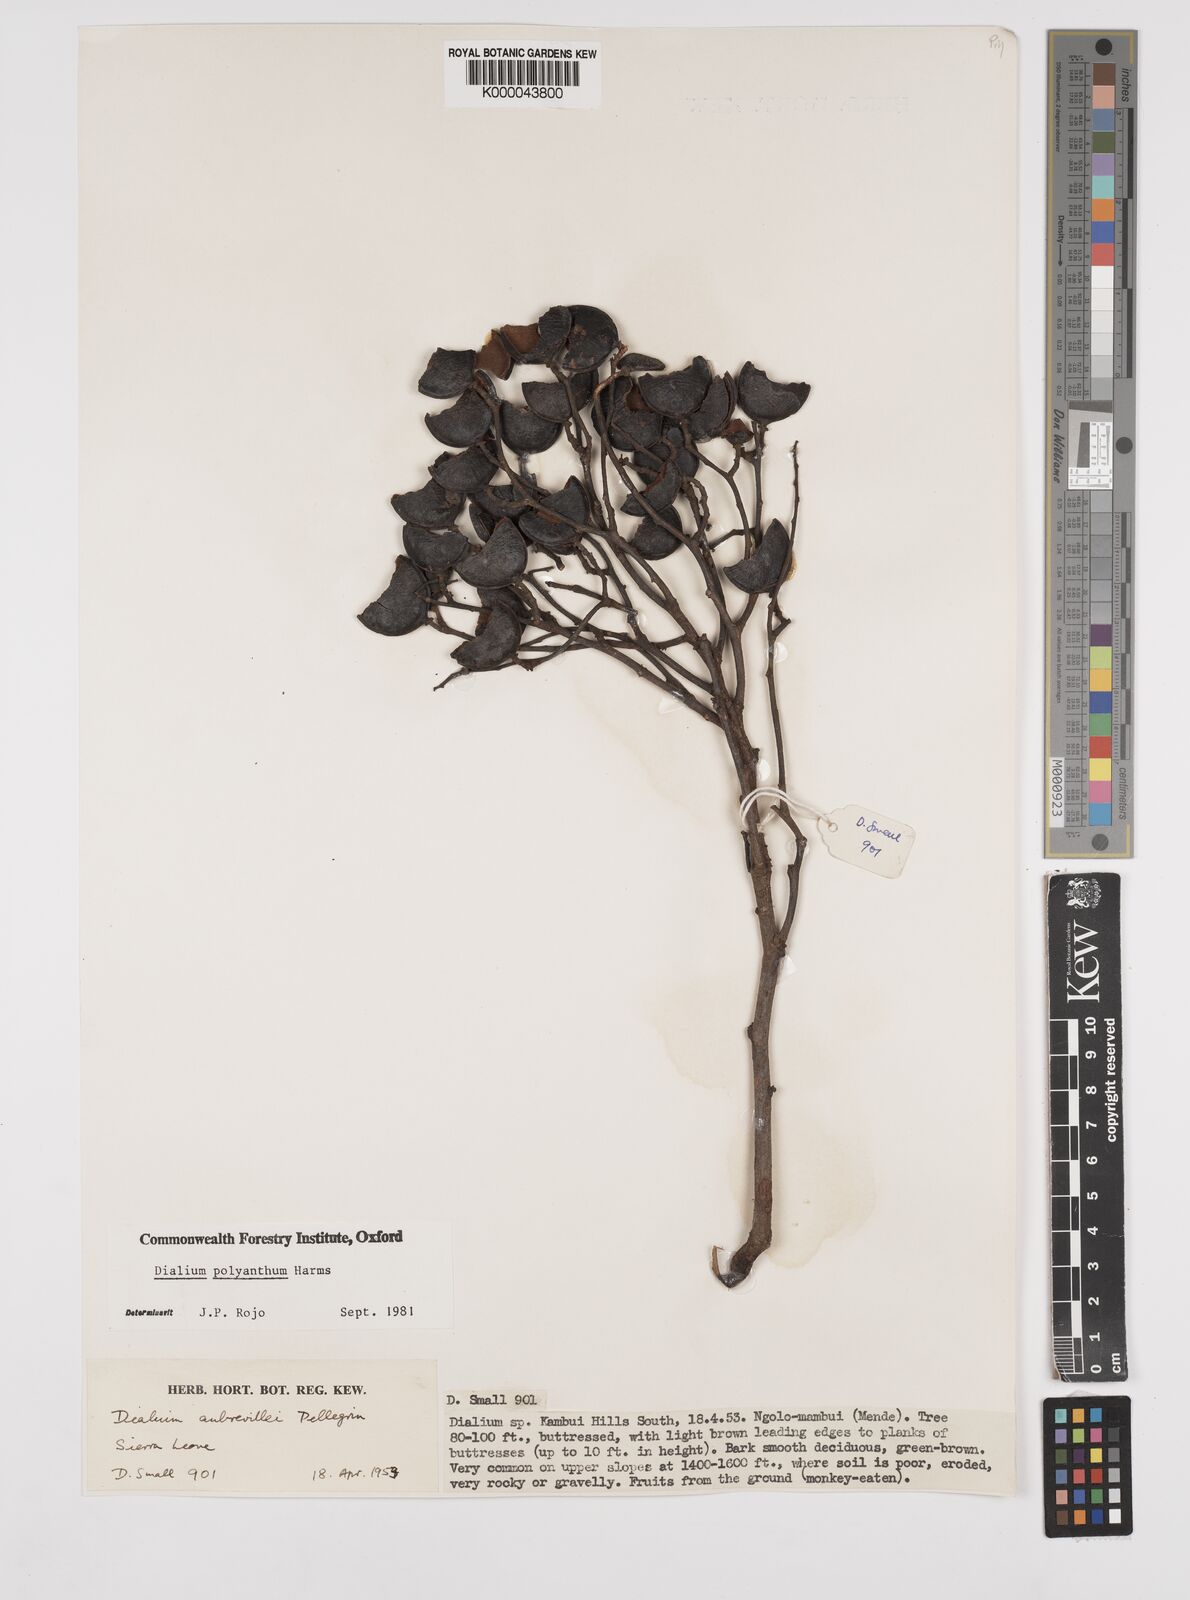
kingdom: Plantae
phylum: Tracheophyta
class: Magnoliopsida
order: Fabales
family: Fabaceae
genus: Dialium
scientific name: Dialium polyanthum
